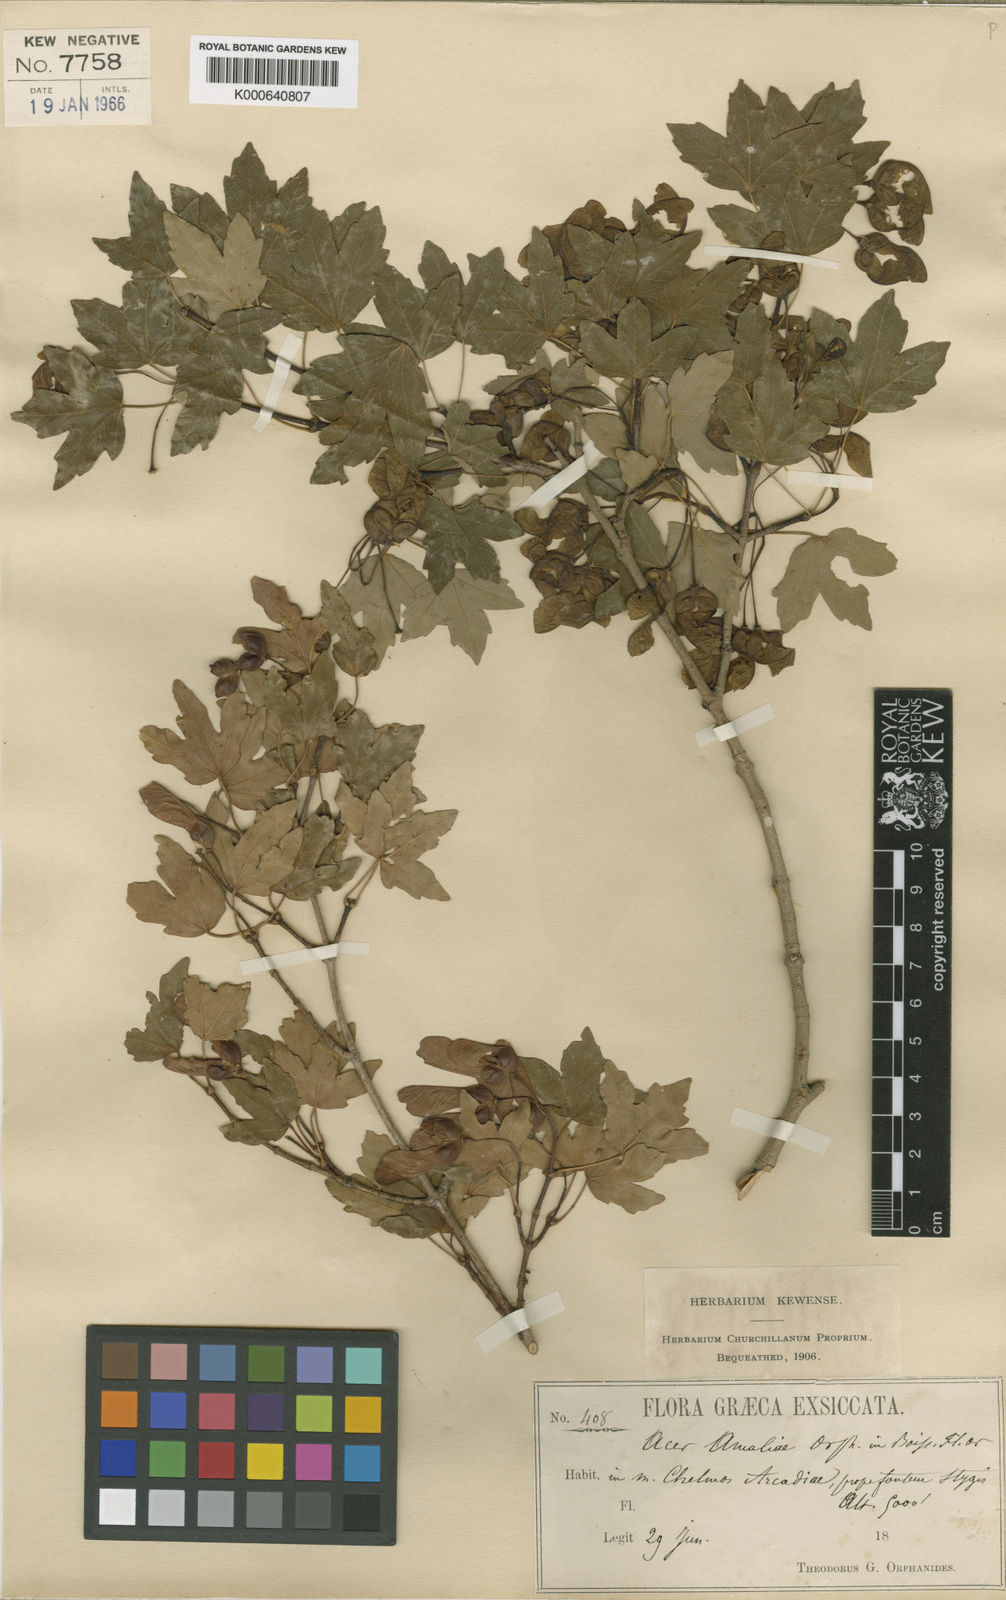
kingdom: Plantae
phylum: Tracheophyta
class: Magnoliopsida
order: Sapindales
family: Sapindaceae
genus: Acer
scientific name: Acer monspessulanum
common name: Montpellier maple
